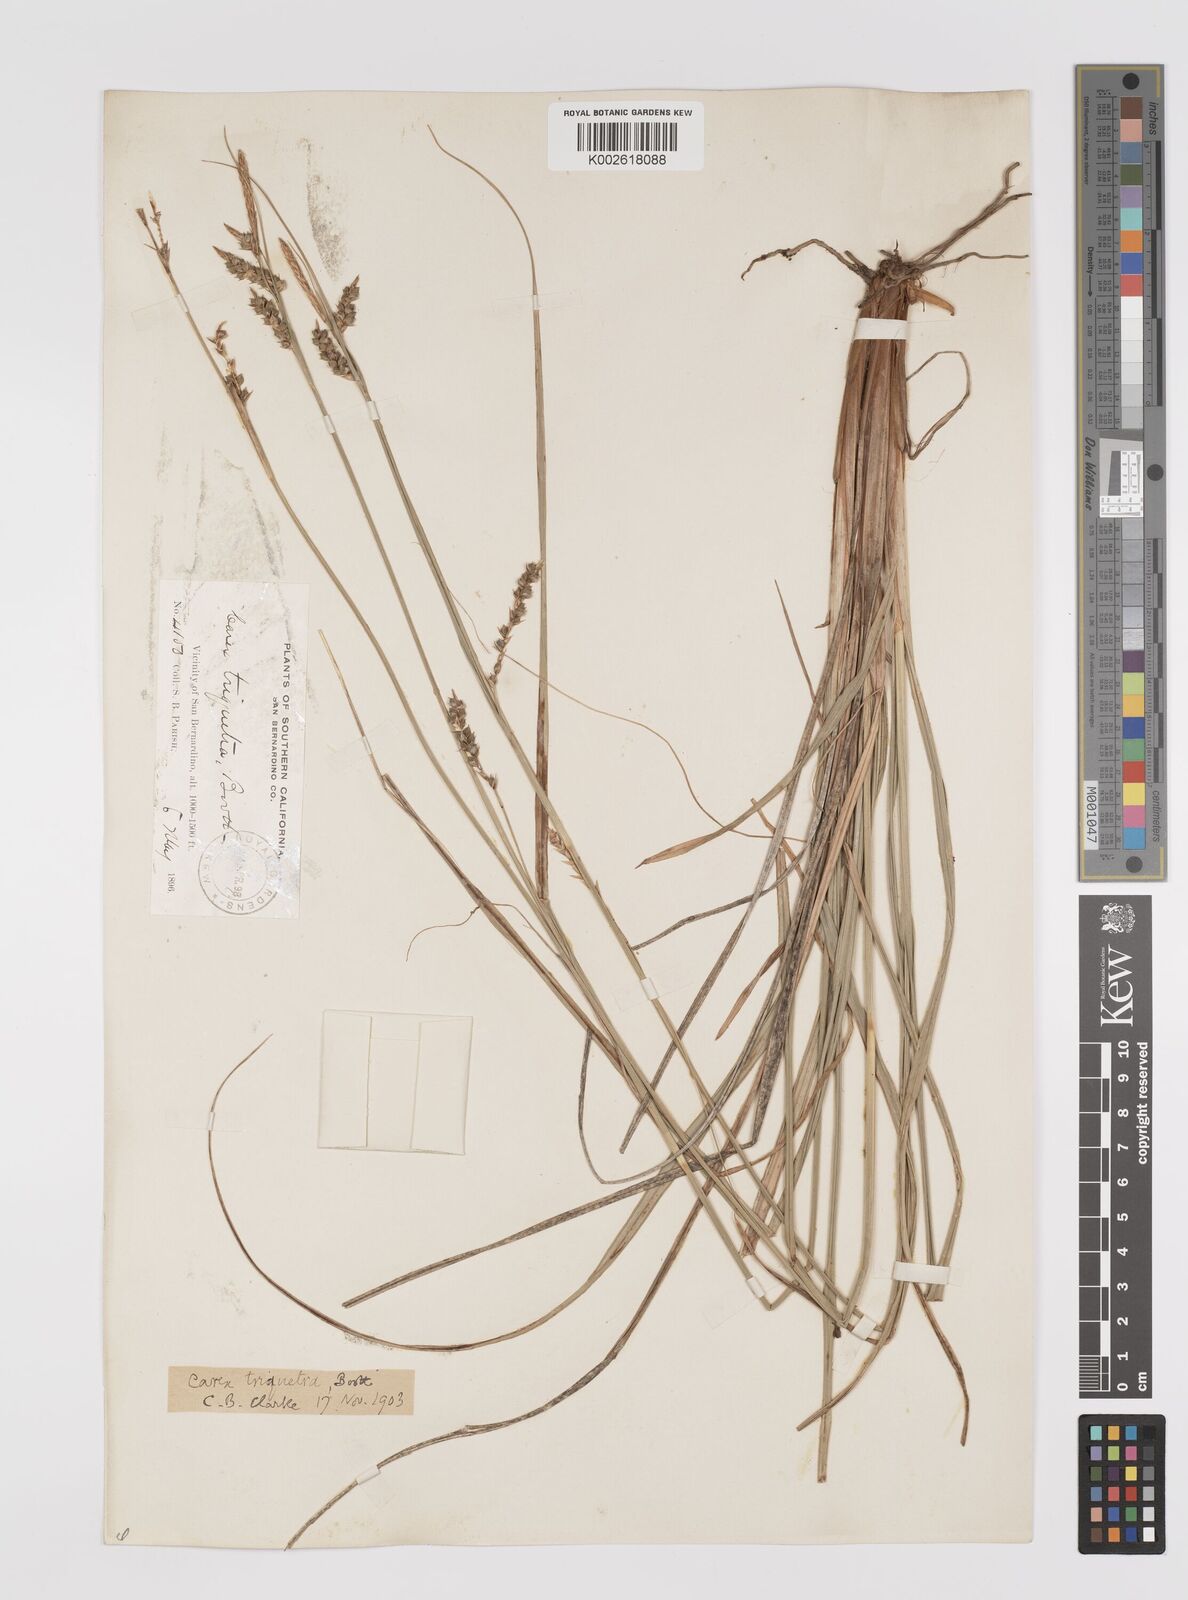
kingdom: Plantae
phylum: Tracheophyta
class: Liliopsida
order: Poales
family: Cyperaceae
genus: Carex
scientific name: Carex triquetra
